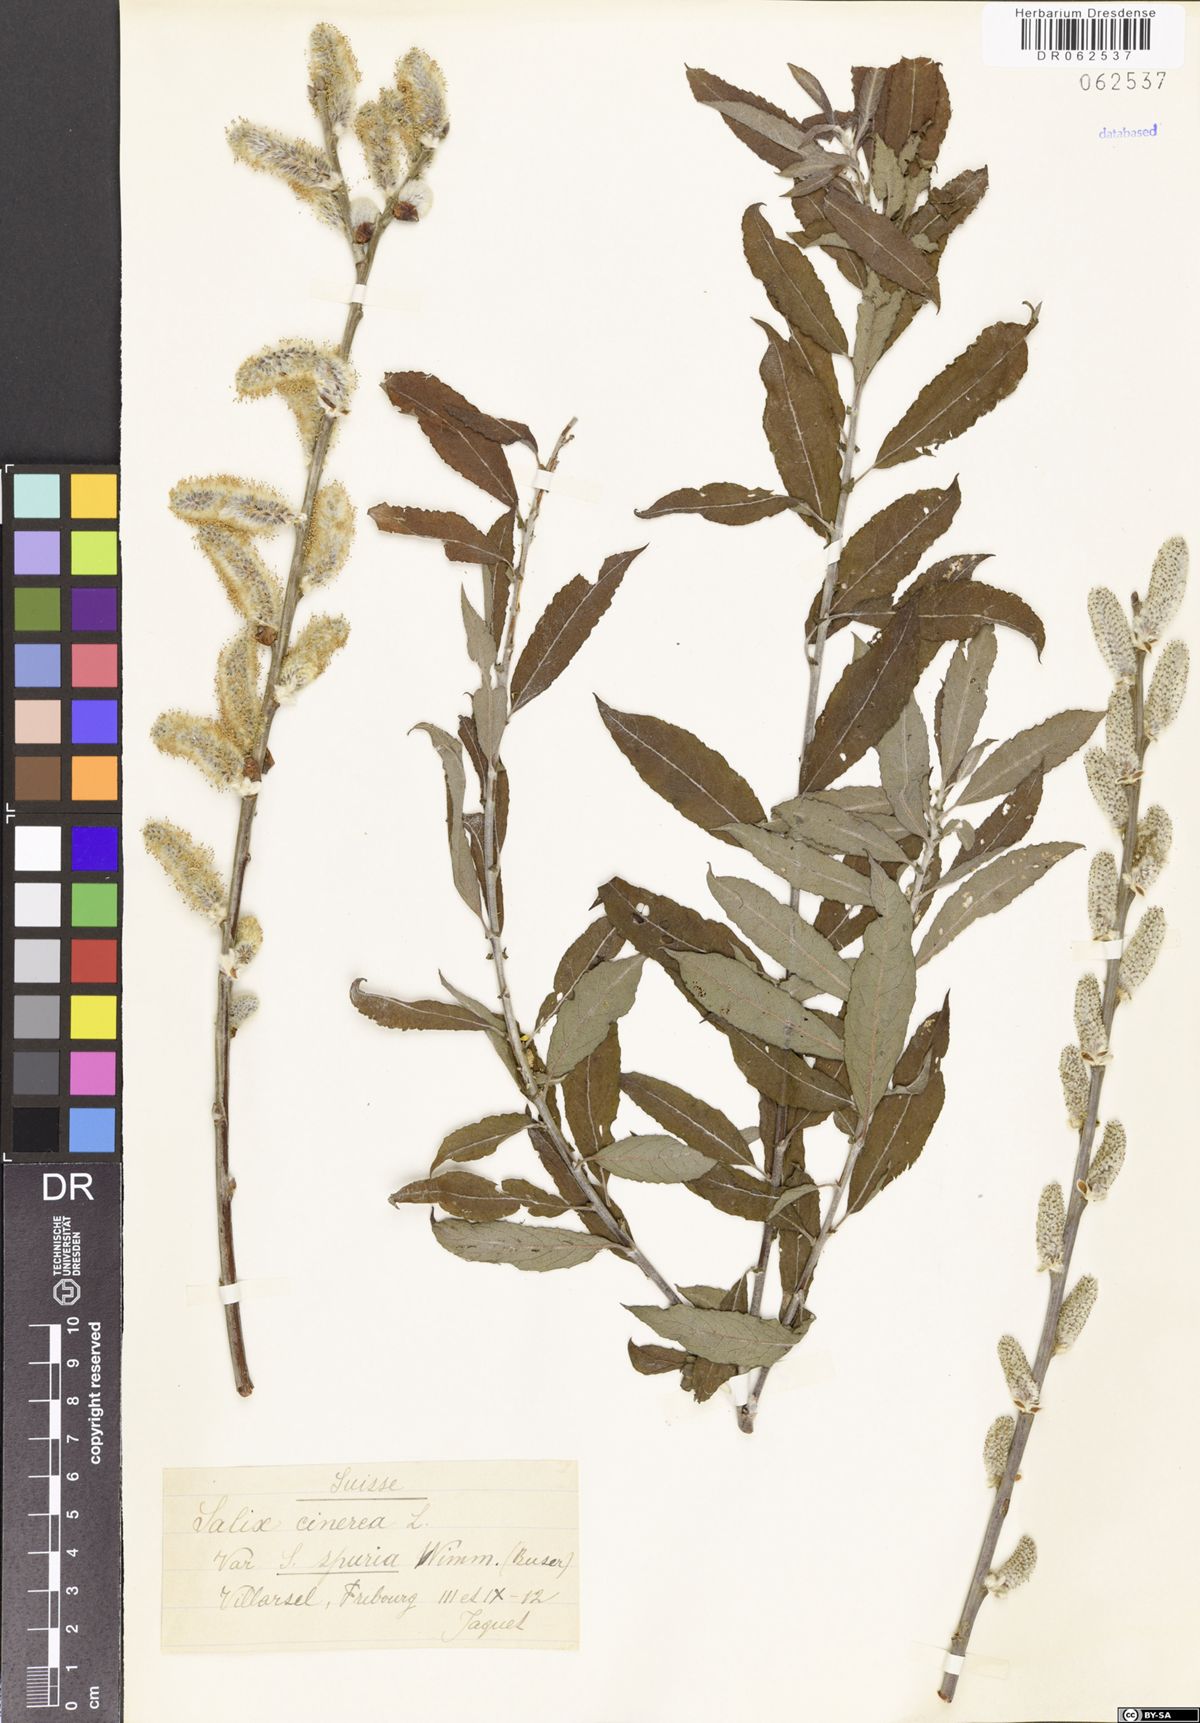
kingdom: Plantae
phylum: Tracheophyta
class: Magnoliopsida
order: Malpighiales
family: Salicaceae
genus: Salix
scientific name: Salix cinerea
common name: Common sallow
